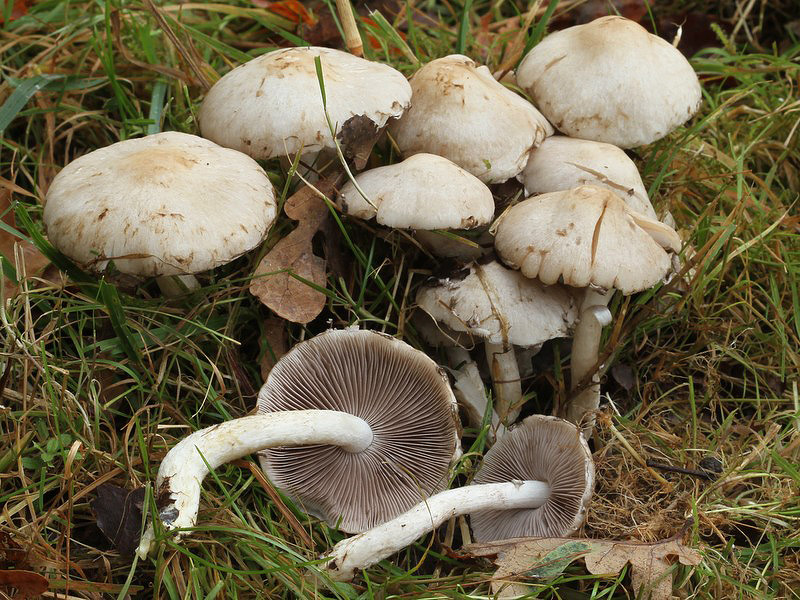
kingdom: Fungi
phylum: Basidiomycota
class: Agaricomycetes
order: Agaricales
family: Psathyrellaceae
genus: Psathyrella
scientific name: Psathyrella cotonea
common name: skællet mørkhat
